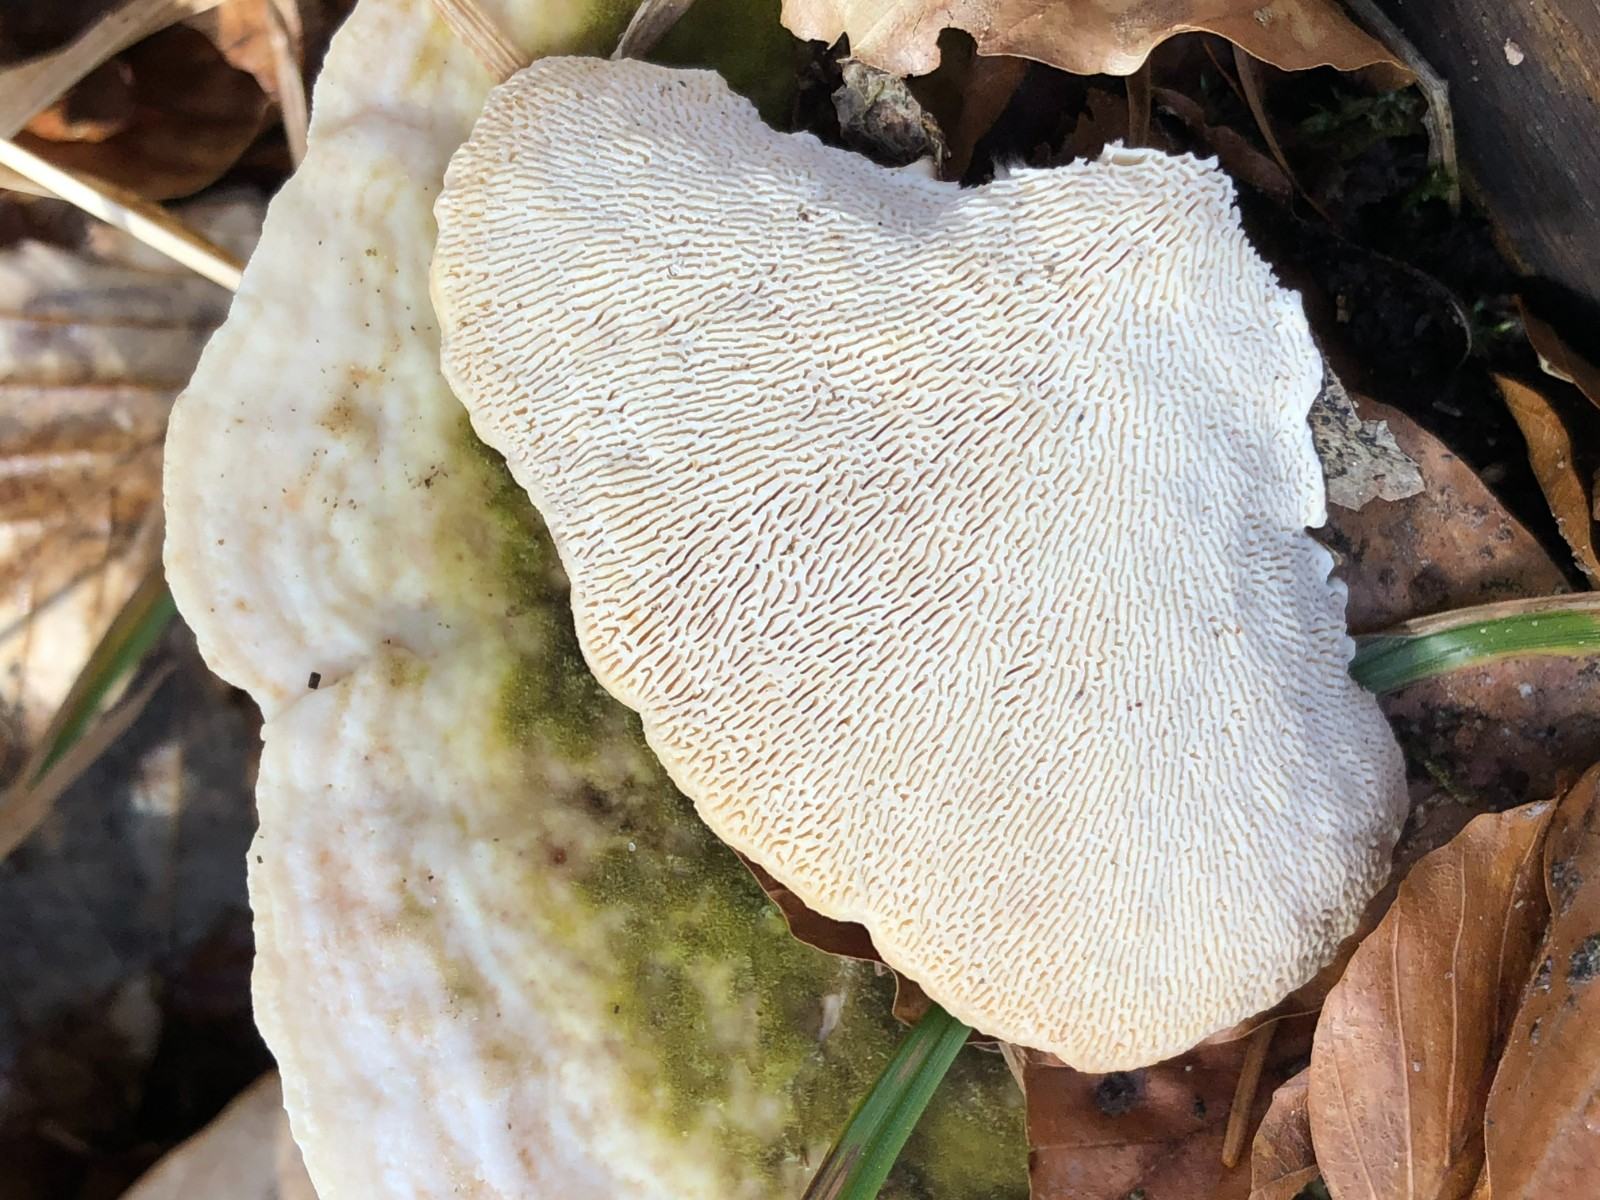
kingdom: Fungi
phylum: Basidiomycota
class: Agaricomycetes
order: Polyporales
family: Polyporaceae
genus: Trametes
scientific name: Trametes gibbosa
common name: puklet læderporesvamp
